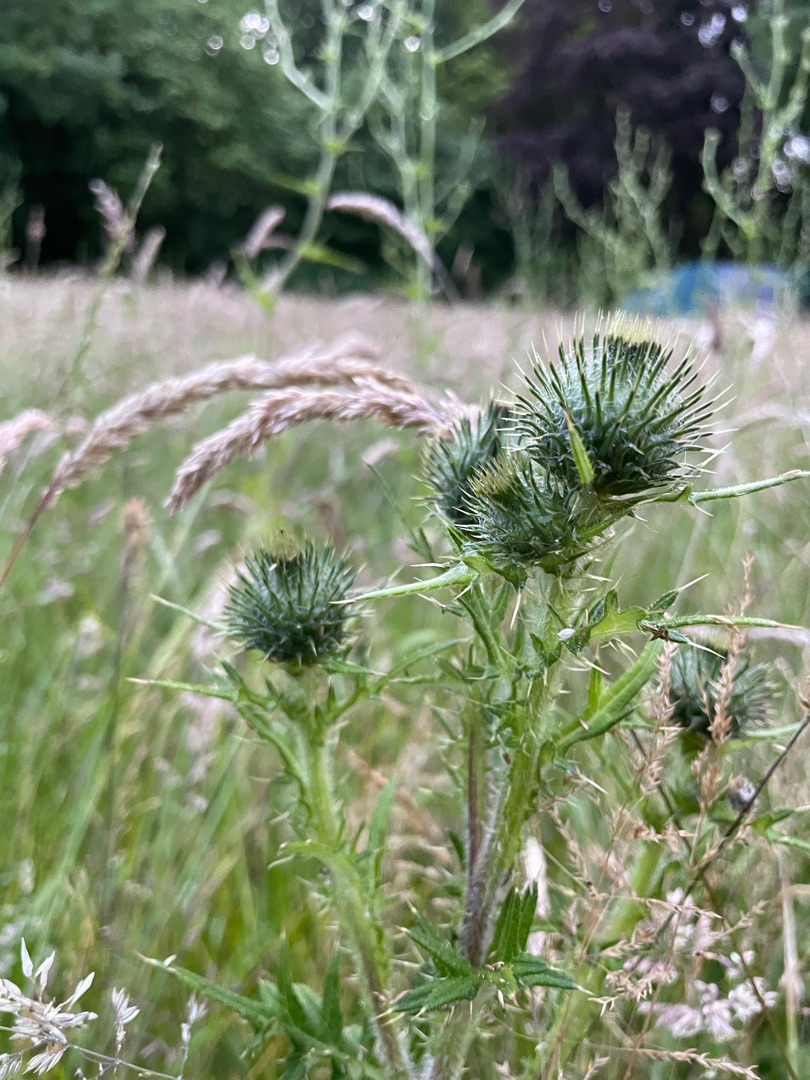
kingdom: Plantae
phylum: Tracheophyta
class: Magnoliopsida
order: Asterales
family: Asteraceae
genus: Cirsium
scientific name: Cirsium vulgare
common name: Horse-tidsel
